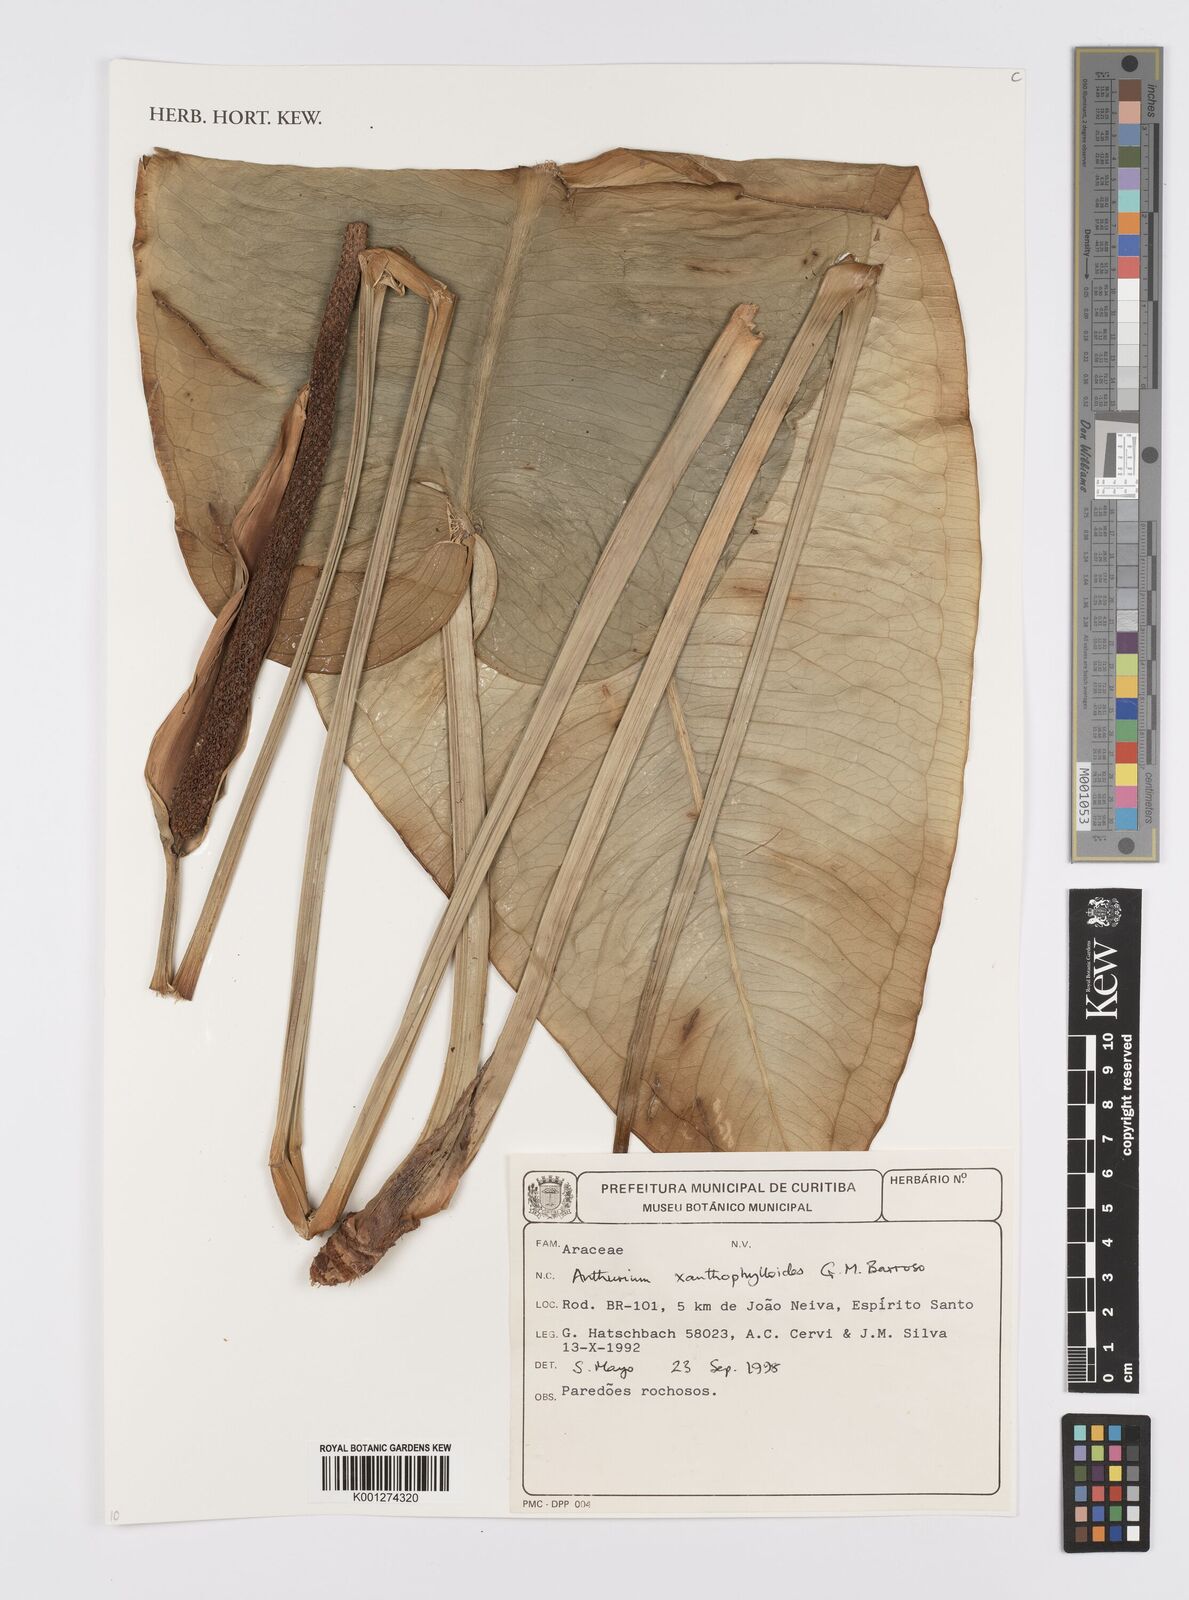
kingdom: Plantae
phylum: Tracheophyta
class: Liliopsida
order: Alismatales
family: Araceae
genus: Anthurium
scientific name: Anthurium xanthophylloides
